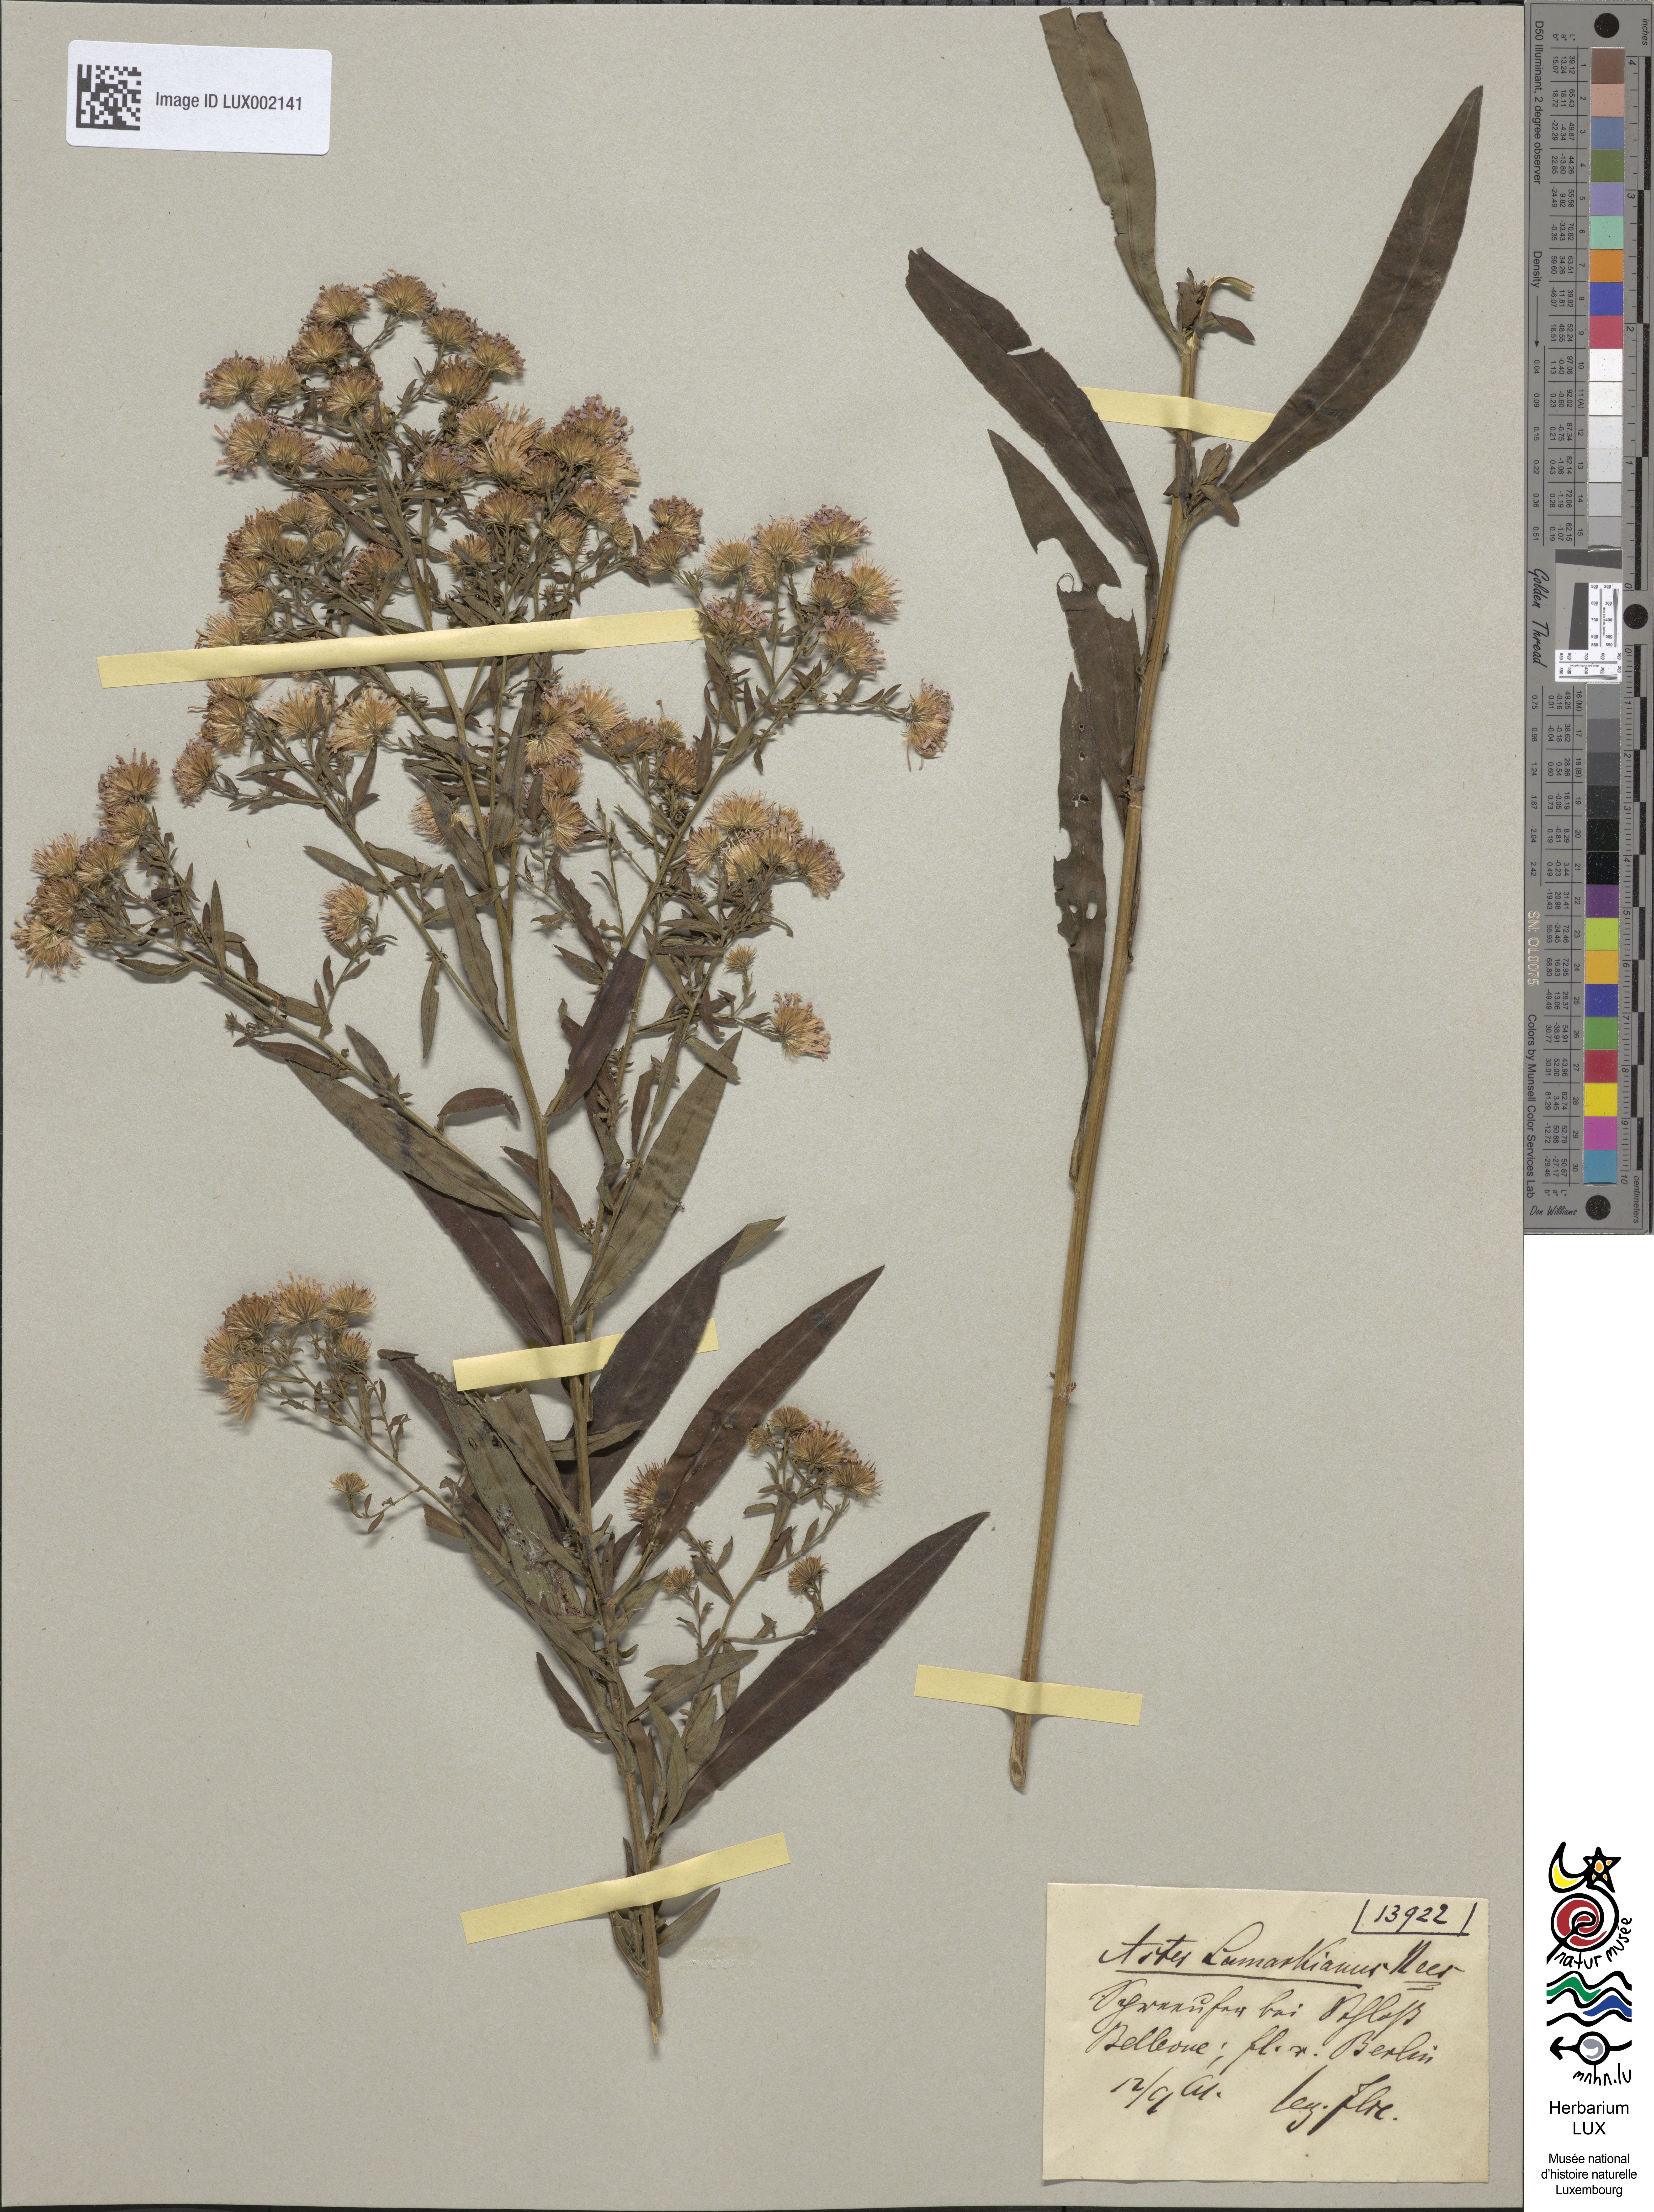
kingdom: Plantae
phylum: Tracheophyta
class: Magnoliopsida
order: Asterales
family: Asteraceae
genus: Symphyotrichum
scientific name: Symphyotrichum salignum
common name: Common michaelmas daisy
